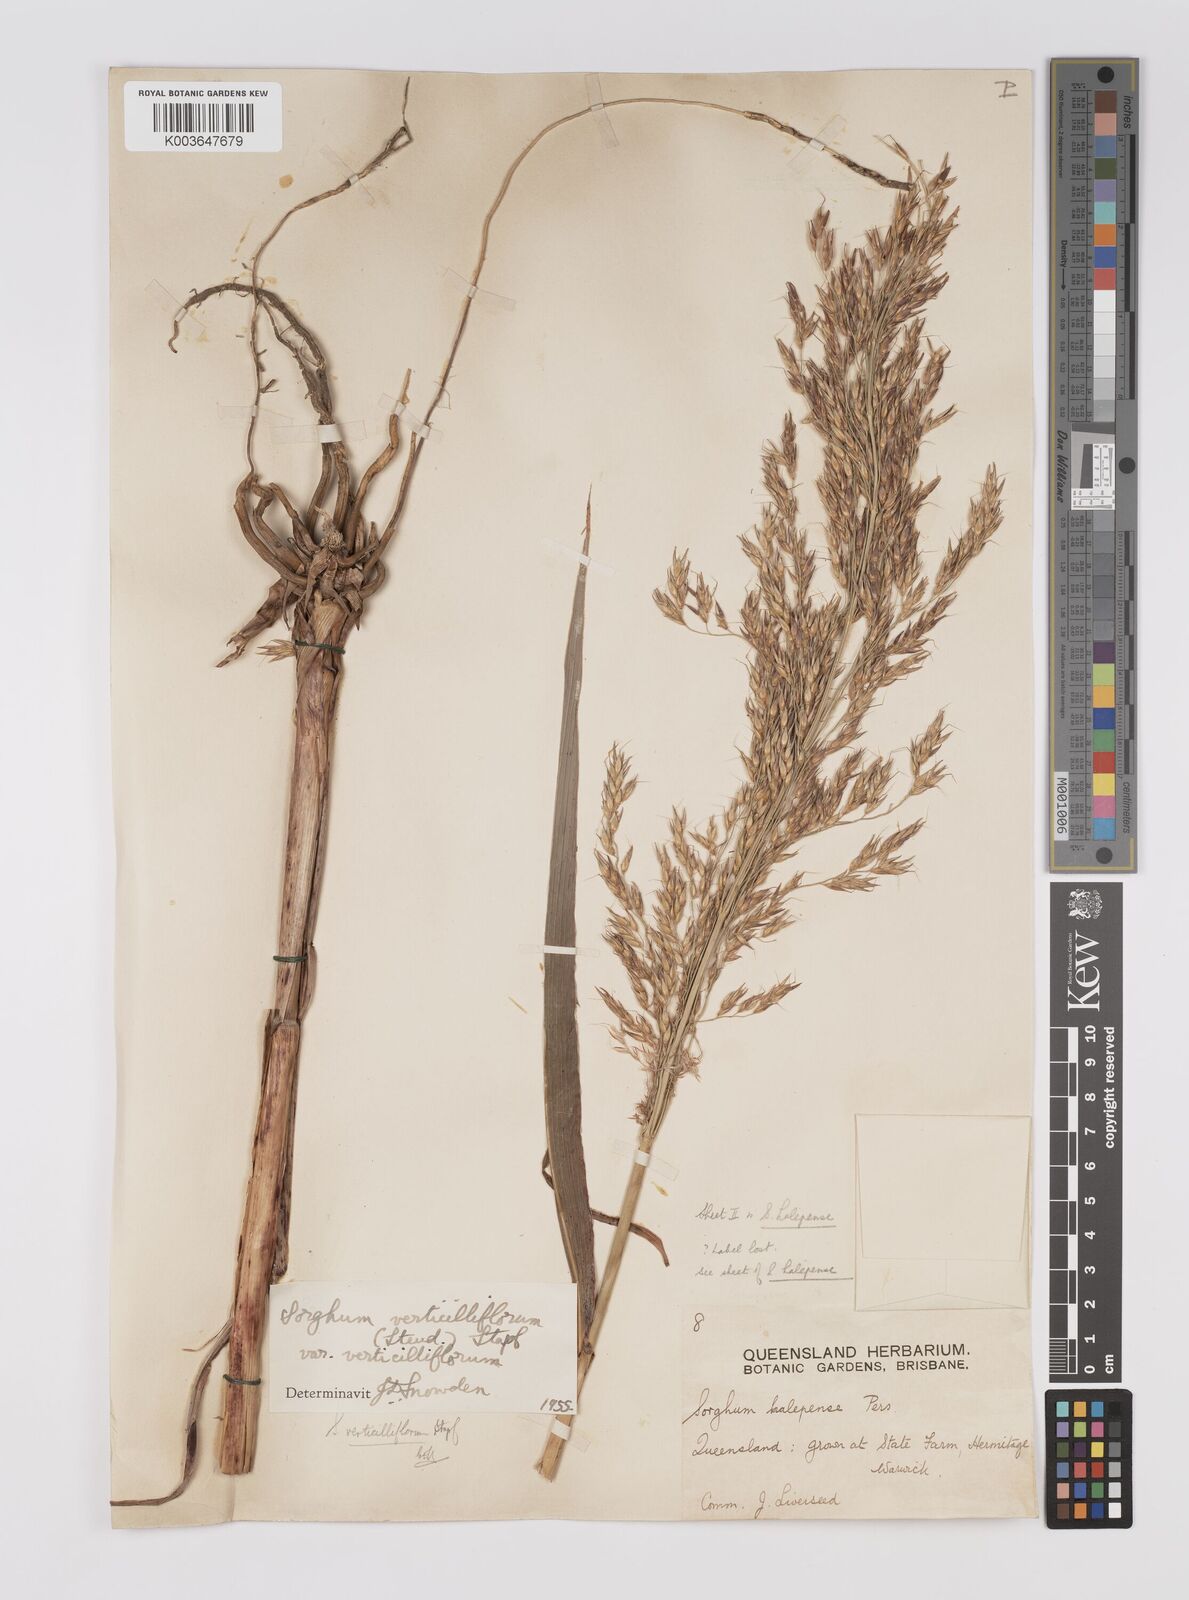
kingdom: Plantae
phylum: Tracheophyta
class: Liliopsida
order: Poales
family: Poaceae
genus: Sorghum
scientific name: Sorghum arundinaceum
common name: Sorghum
